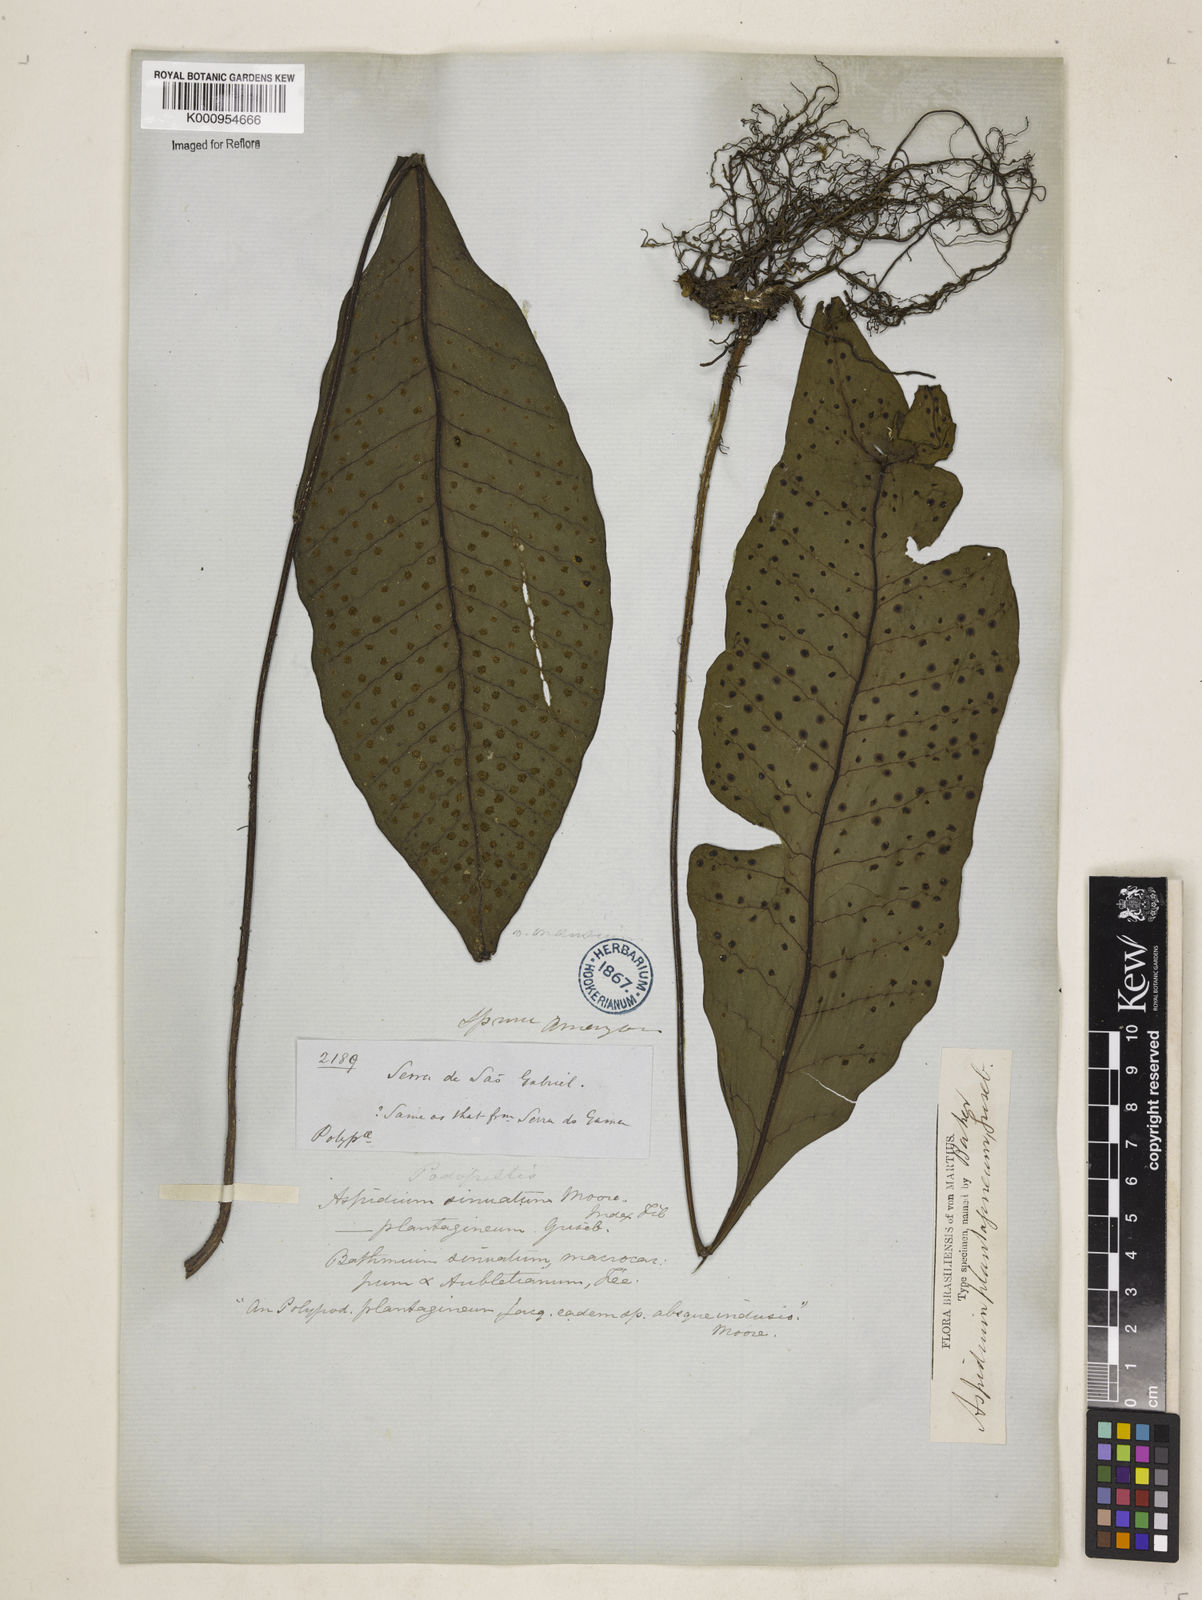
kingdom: Plantae
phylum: Tracheophyta
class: Polypodiopsida
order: Polypodiales
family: Lomariopsidaceae
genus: Dracoglossum
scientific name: Dracoglossum sinuatum
